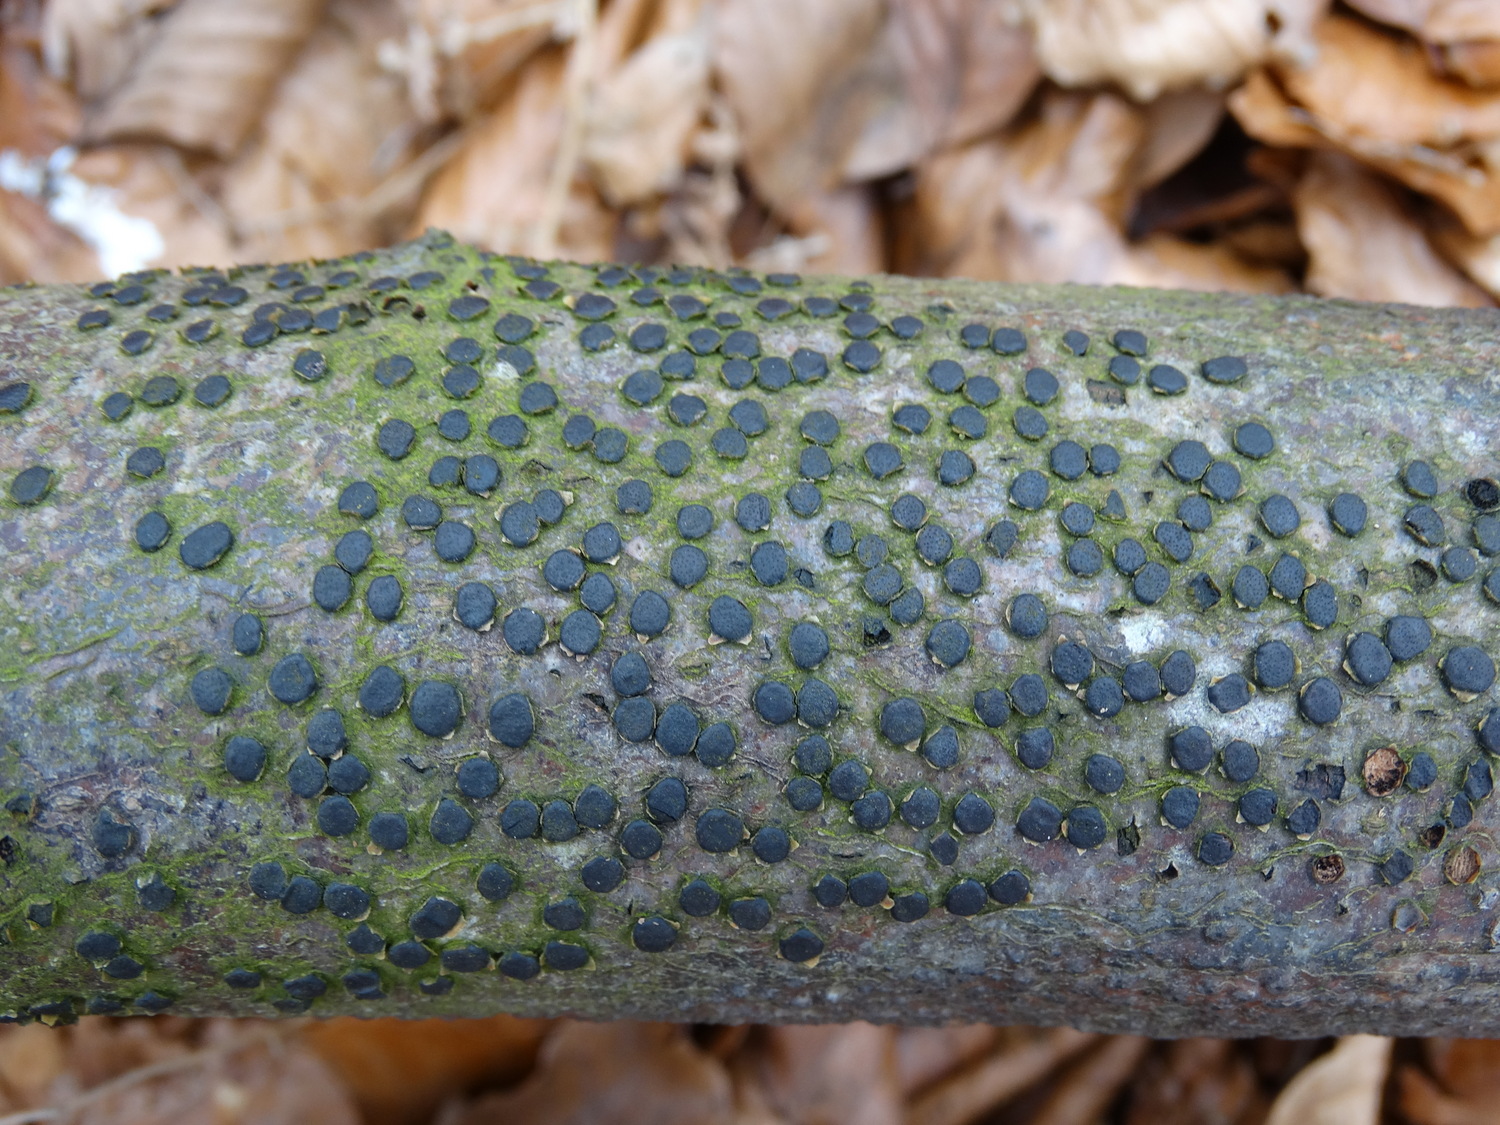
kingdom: Fungi
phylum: Ascomycota
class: Sordariomycetes
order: Xylariales
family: Diatrypaceae
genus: Diatrype
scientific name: Diatrype disciformis
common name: kant-kulskorpe
